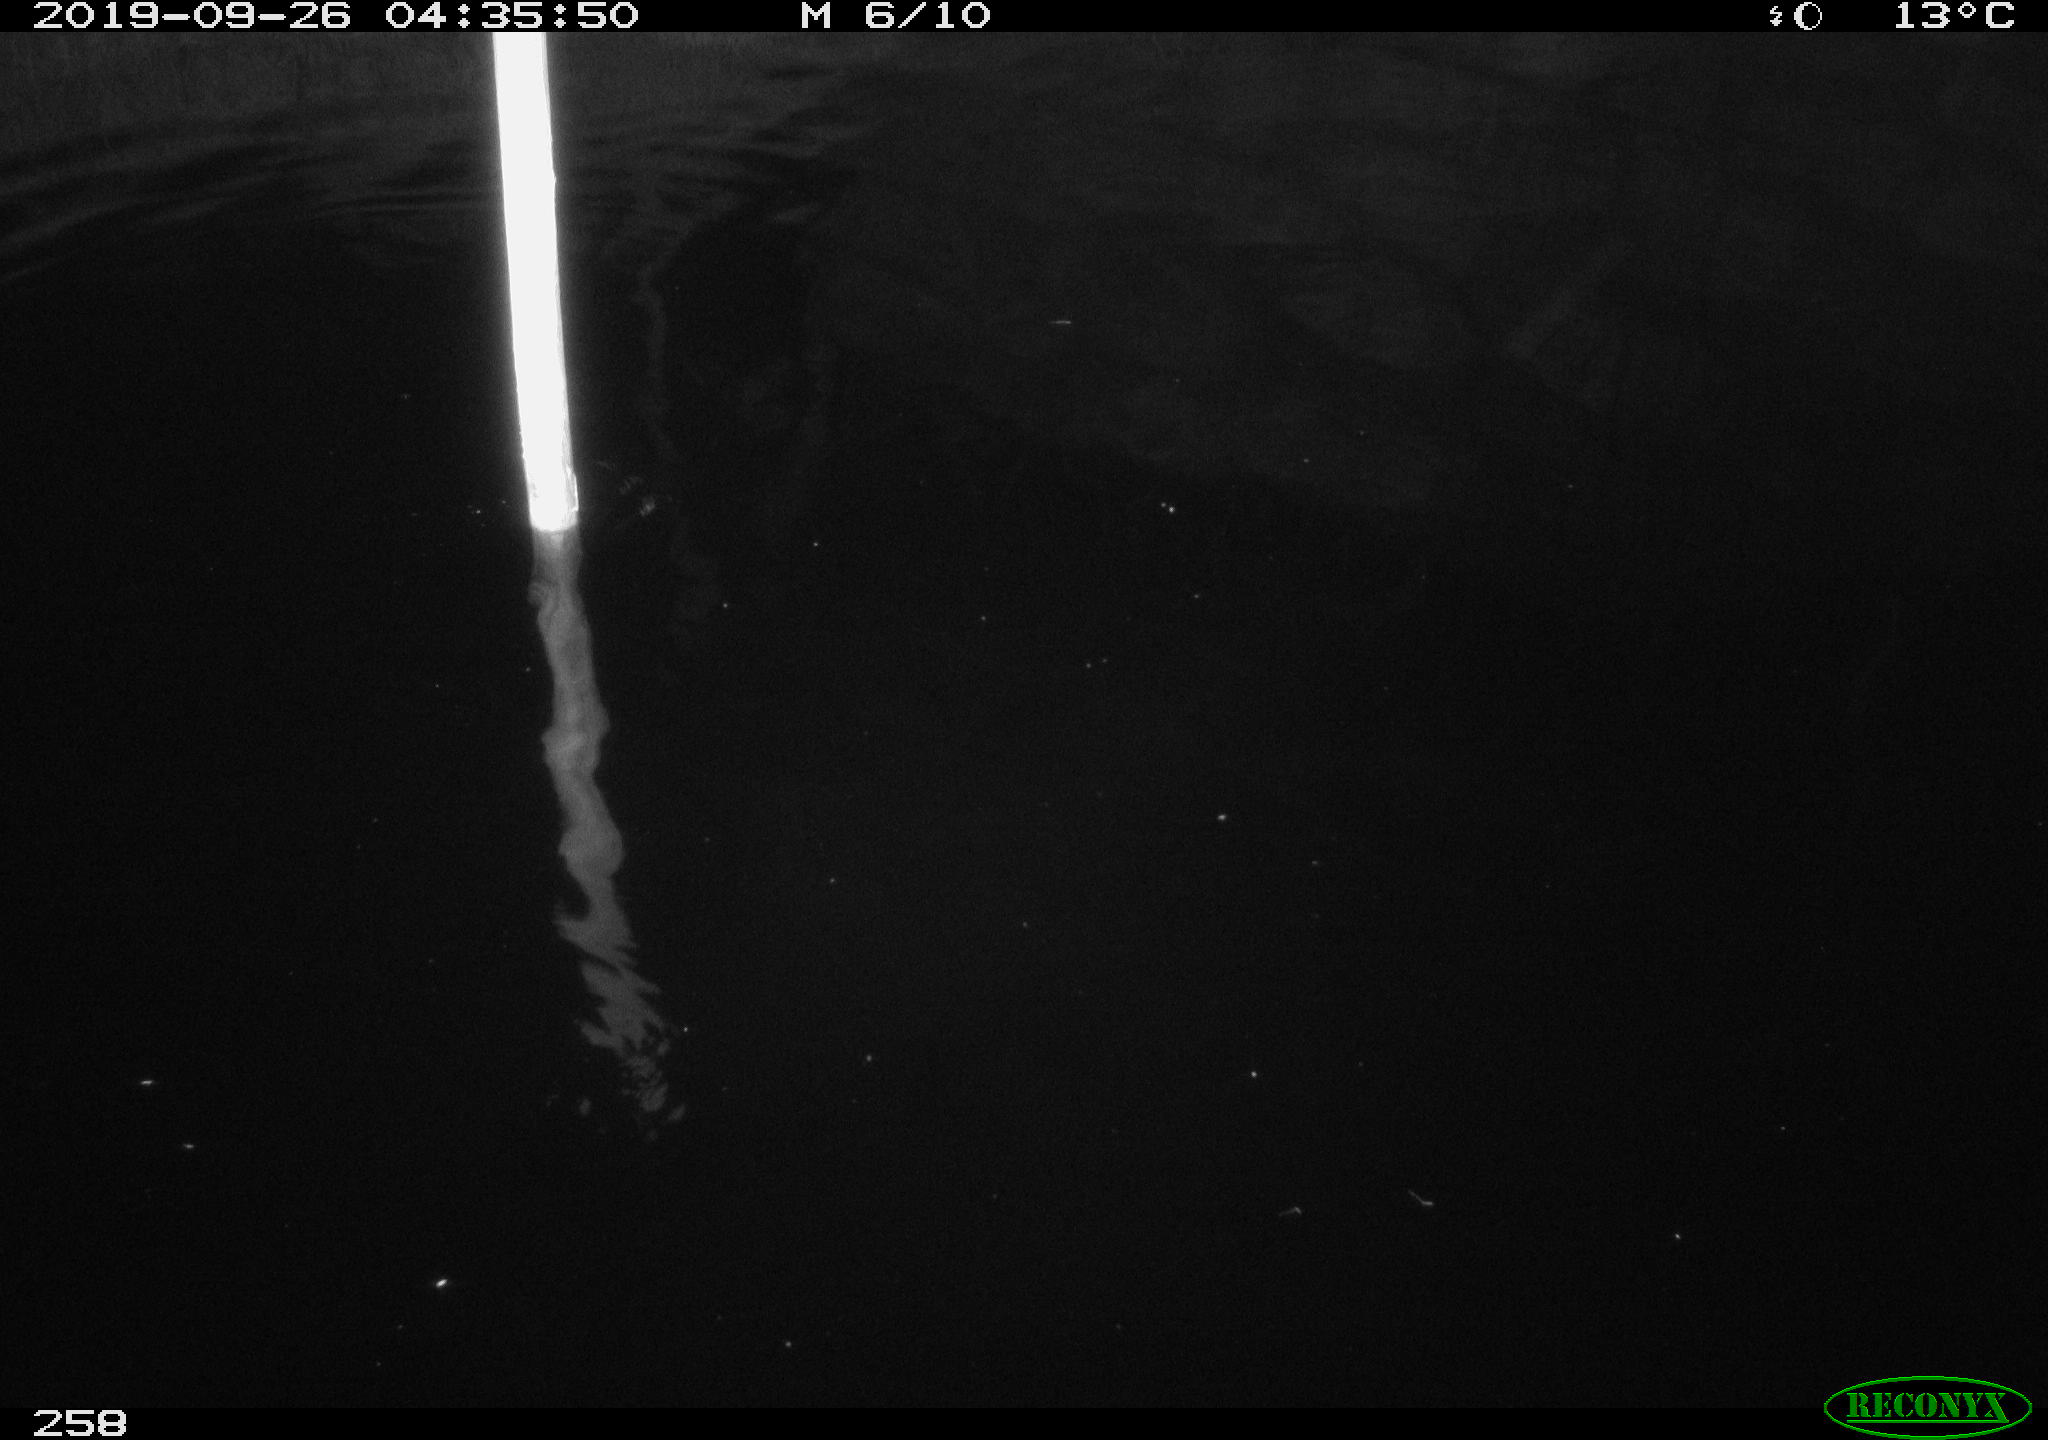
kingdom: Animalia
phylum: Chordata
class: Aves
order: Anseriformes
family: Anatidae
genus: Anas
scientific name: Anas platyrhynchos
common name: Mallard
